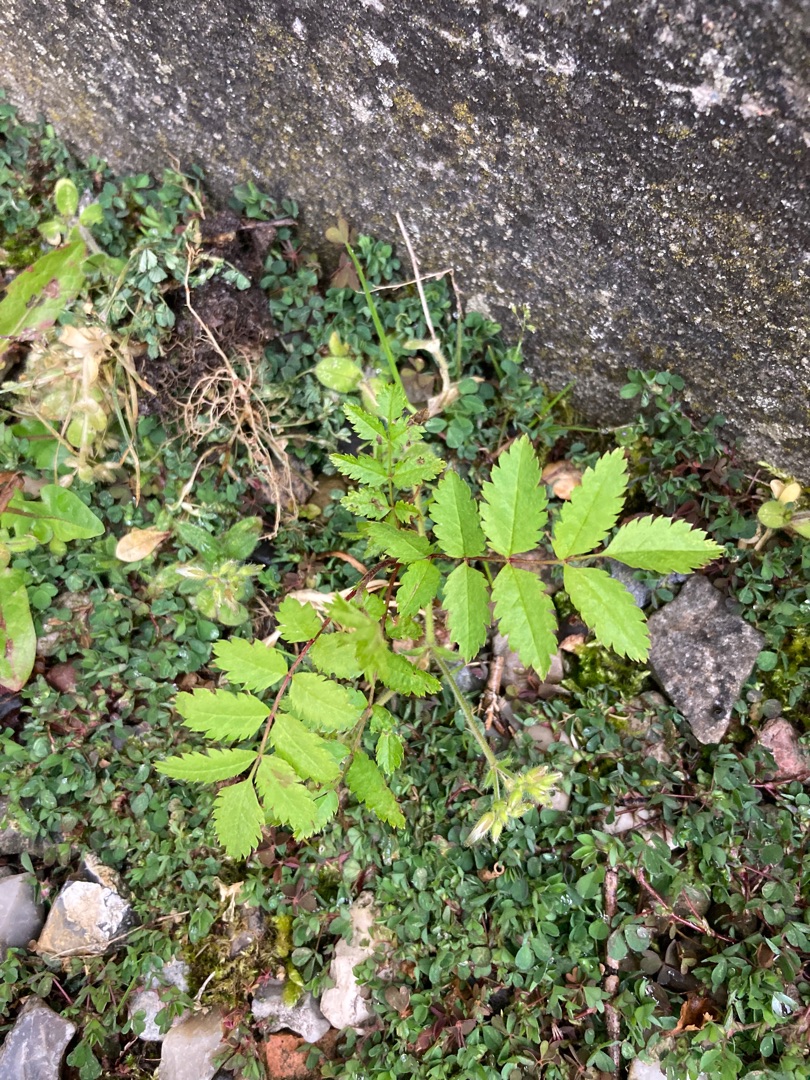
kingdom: Plantae
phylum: Tracheophyta
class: Magnoliopsida
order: Rosales
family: Rosaceae
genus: Sorbus
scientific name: Sorbus aucuparia
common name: Almindelig røn
